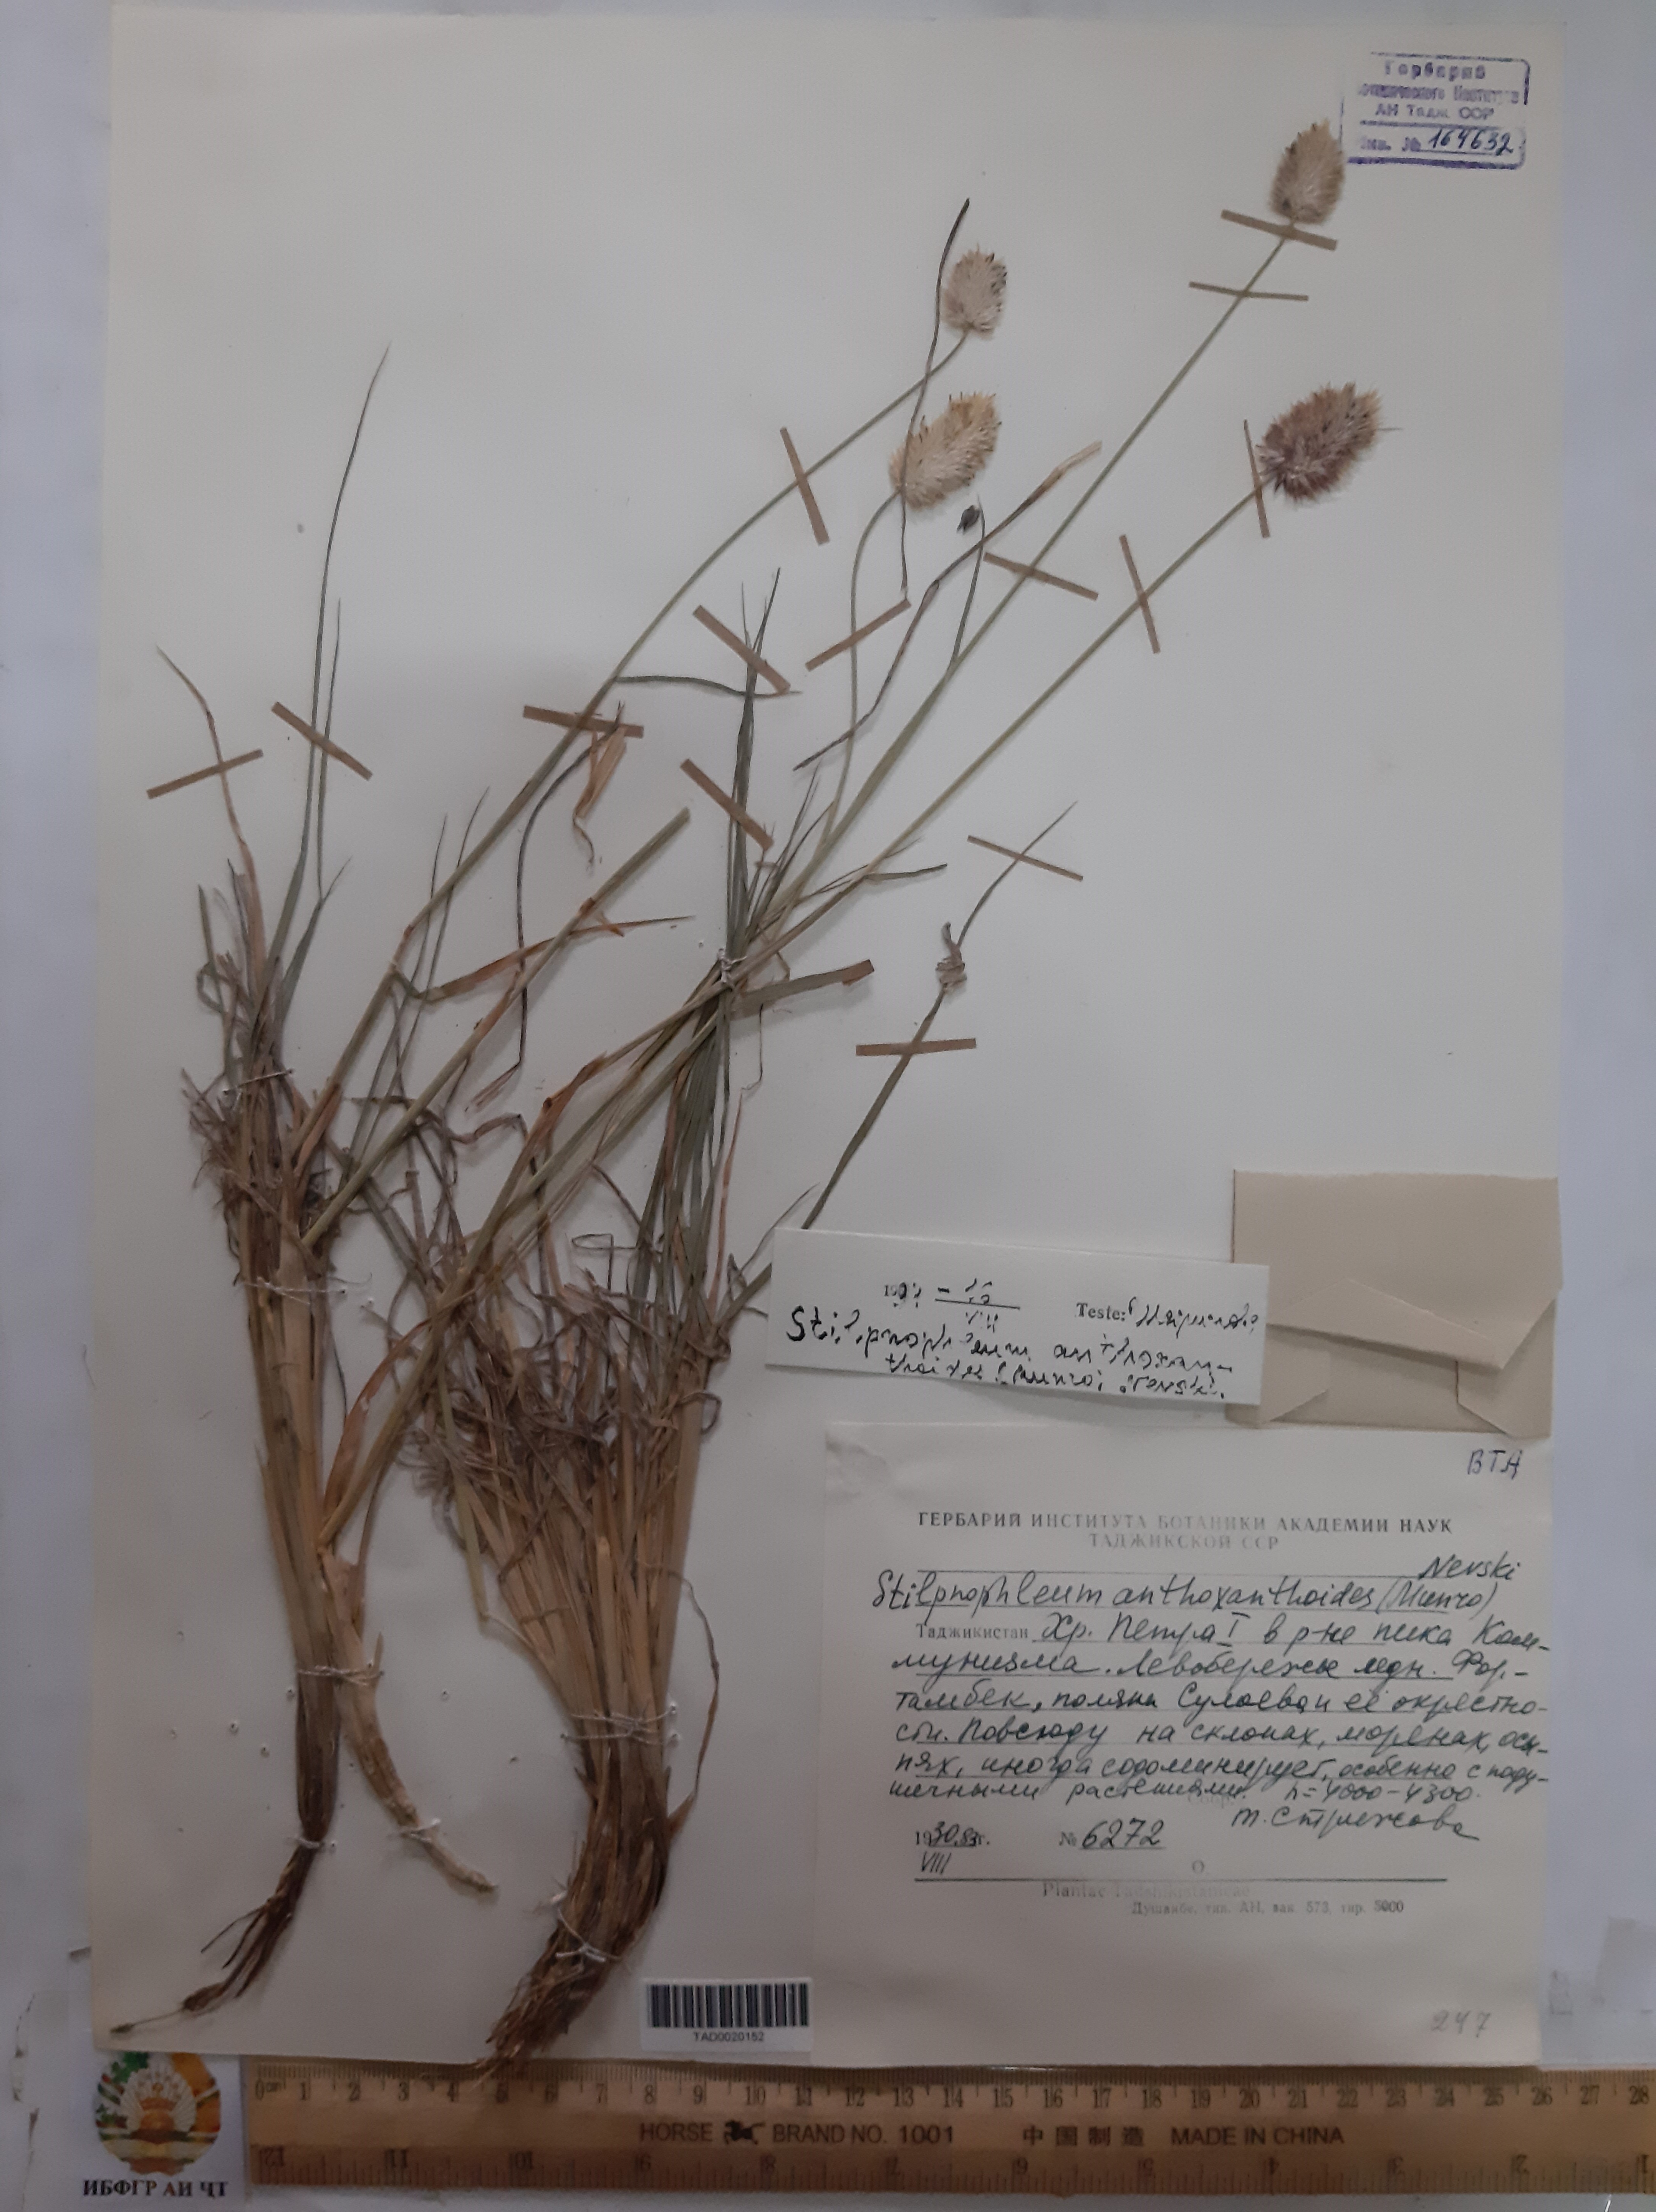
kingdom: Plantae
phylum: Tracheophyta
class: Liliopsida
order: Poales
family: Poaceae
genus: Calamagrostis
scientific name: Calamagrostis anthoxanthoides
